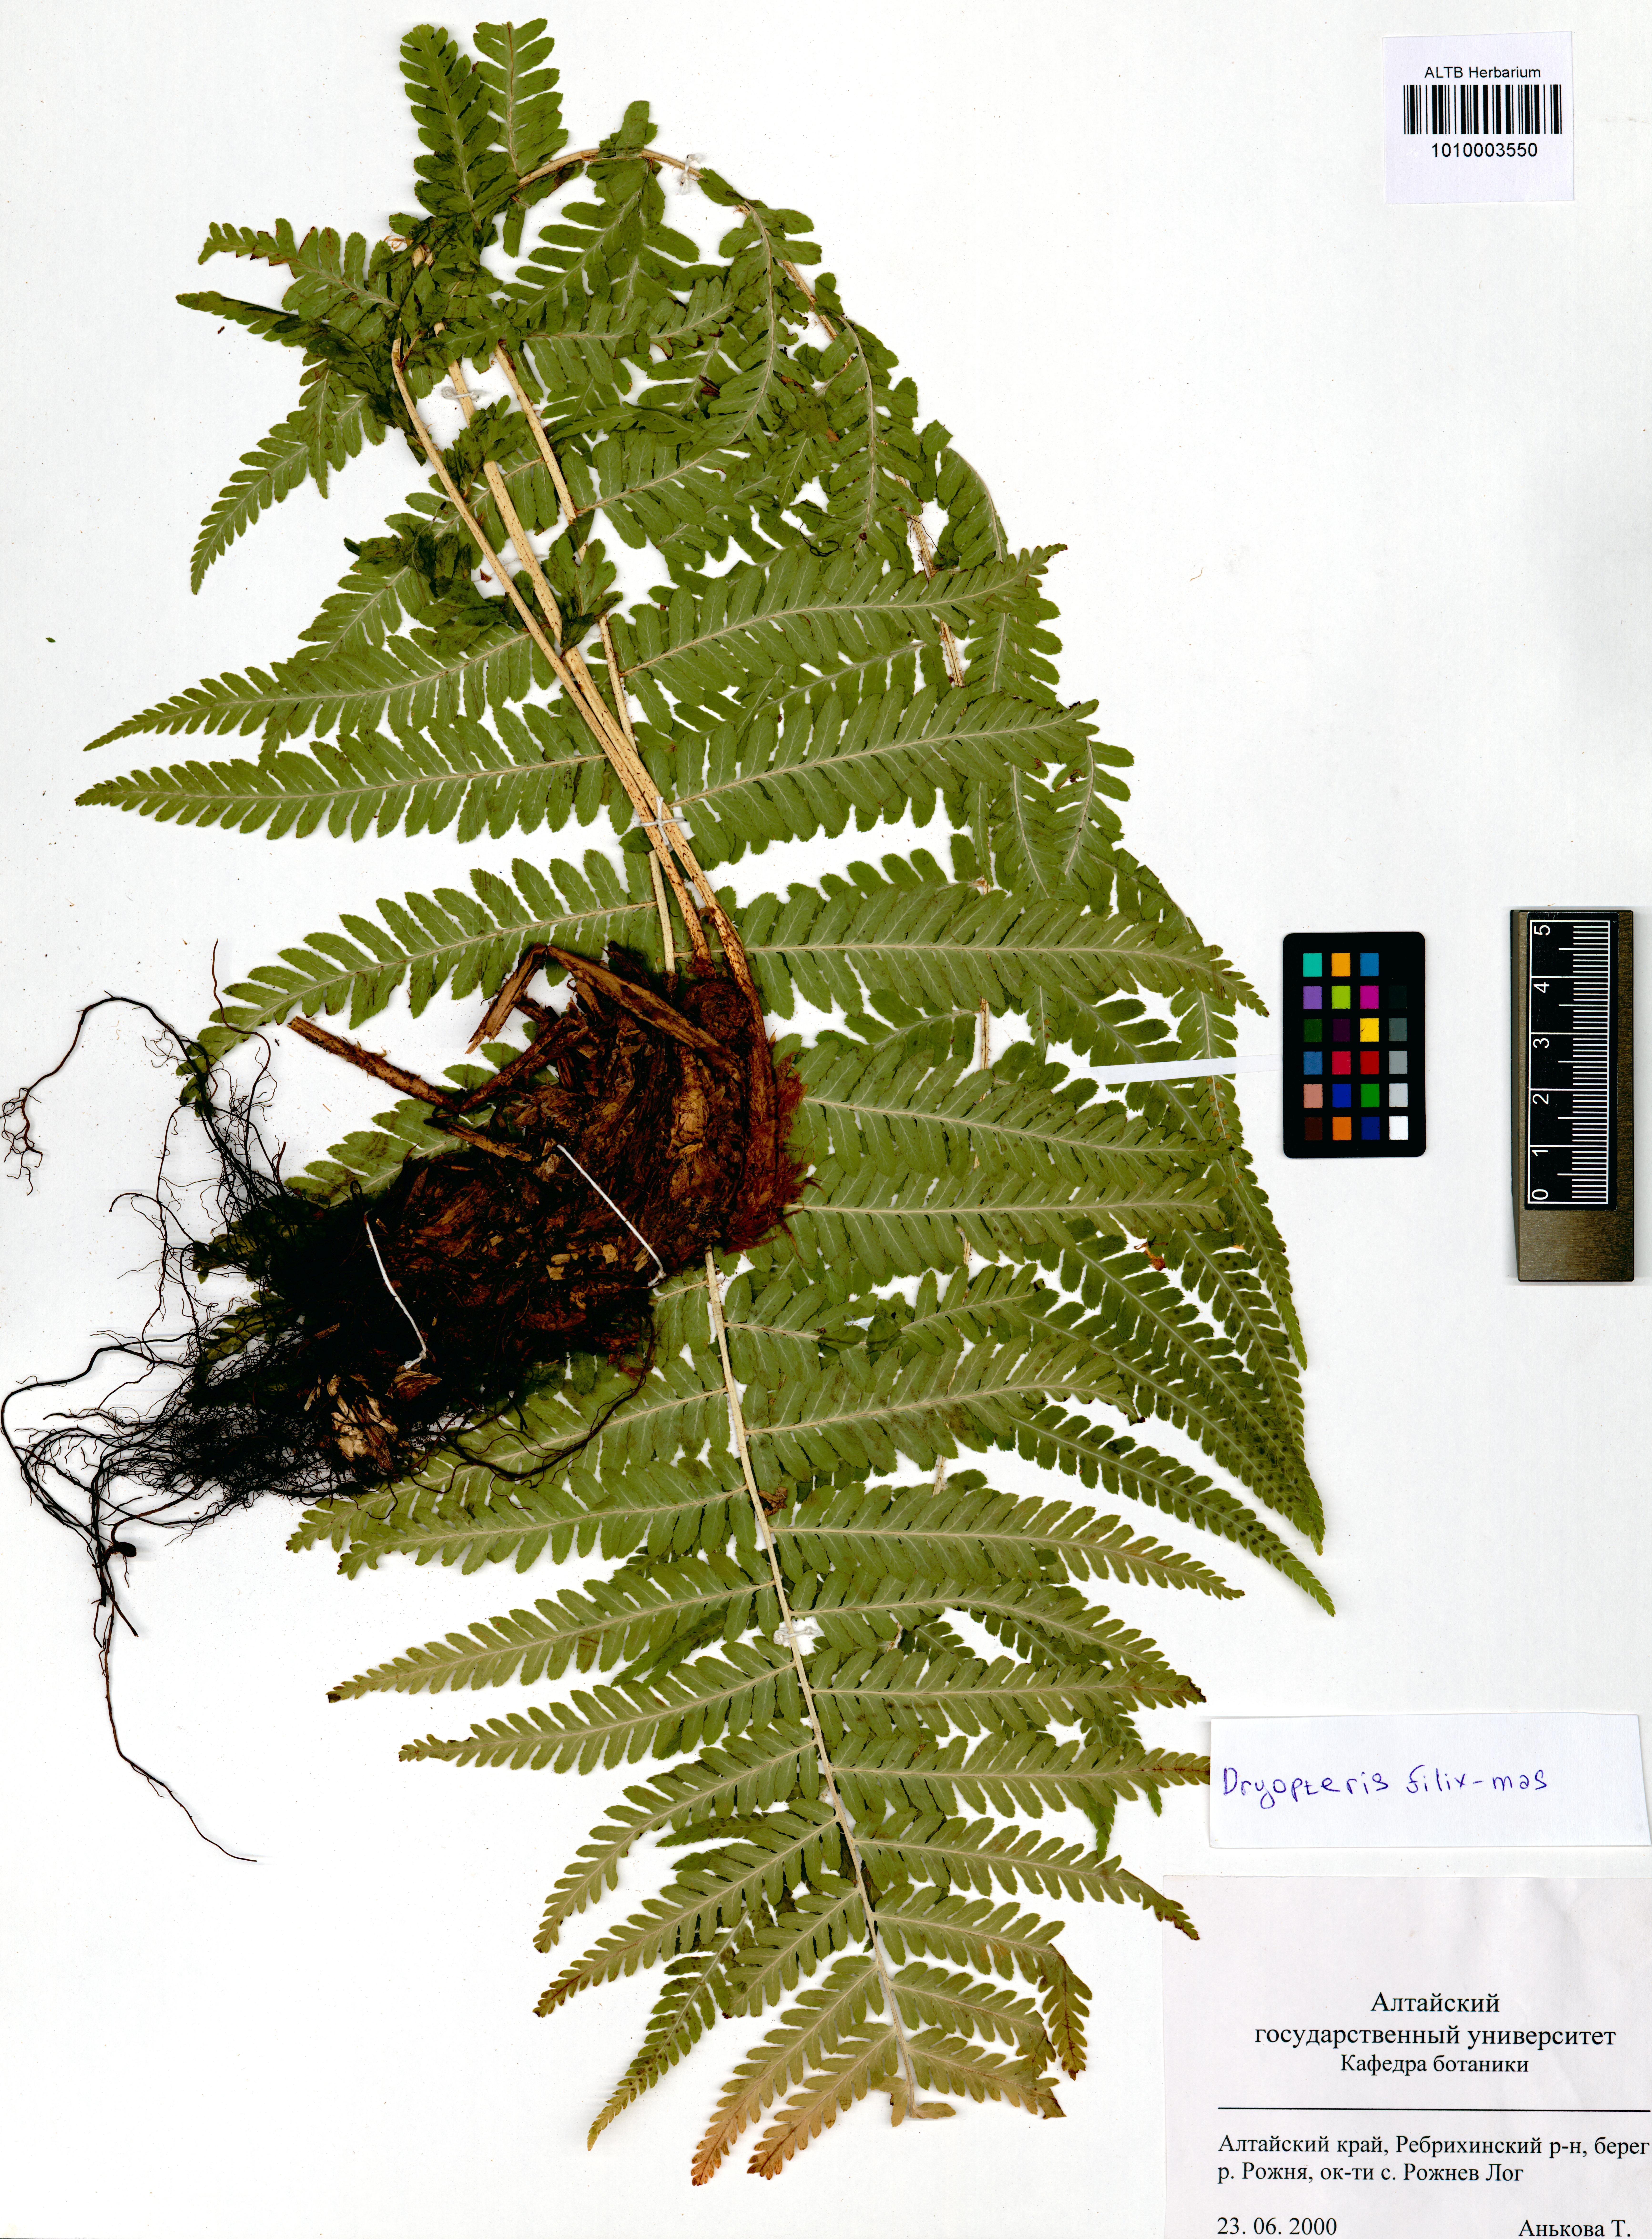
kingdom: Plantae
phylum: Tracheophyta
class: Polypodiopsida
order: Polypodiales
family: Dryopteridaceae
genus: Dryopteris
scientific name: Dryopteris filix-mas
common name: Male fern
